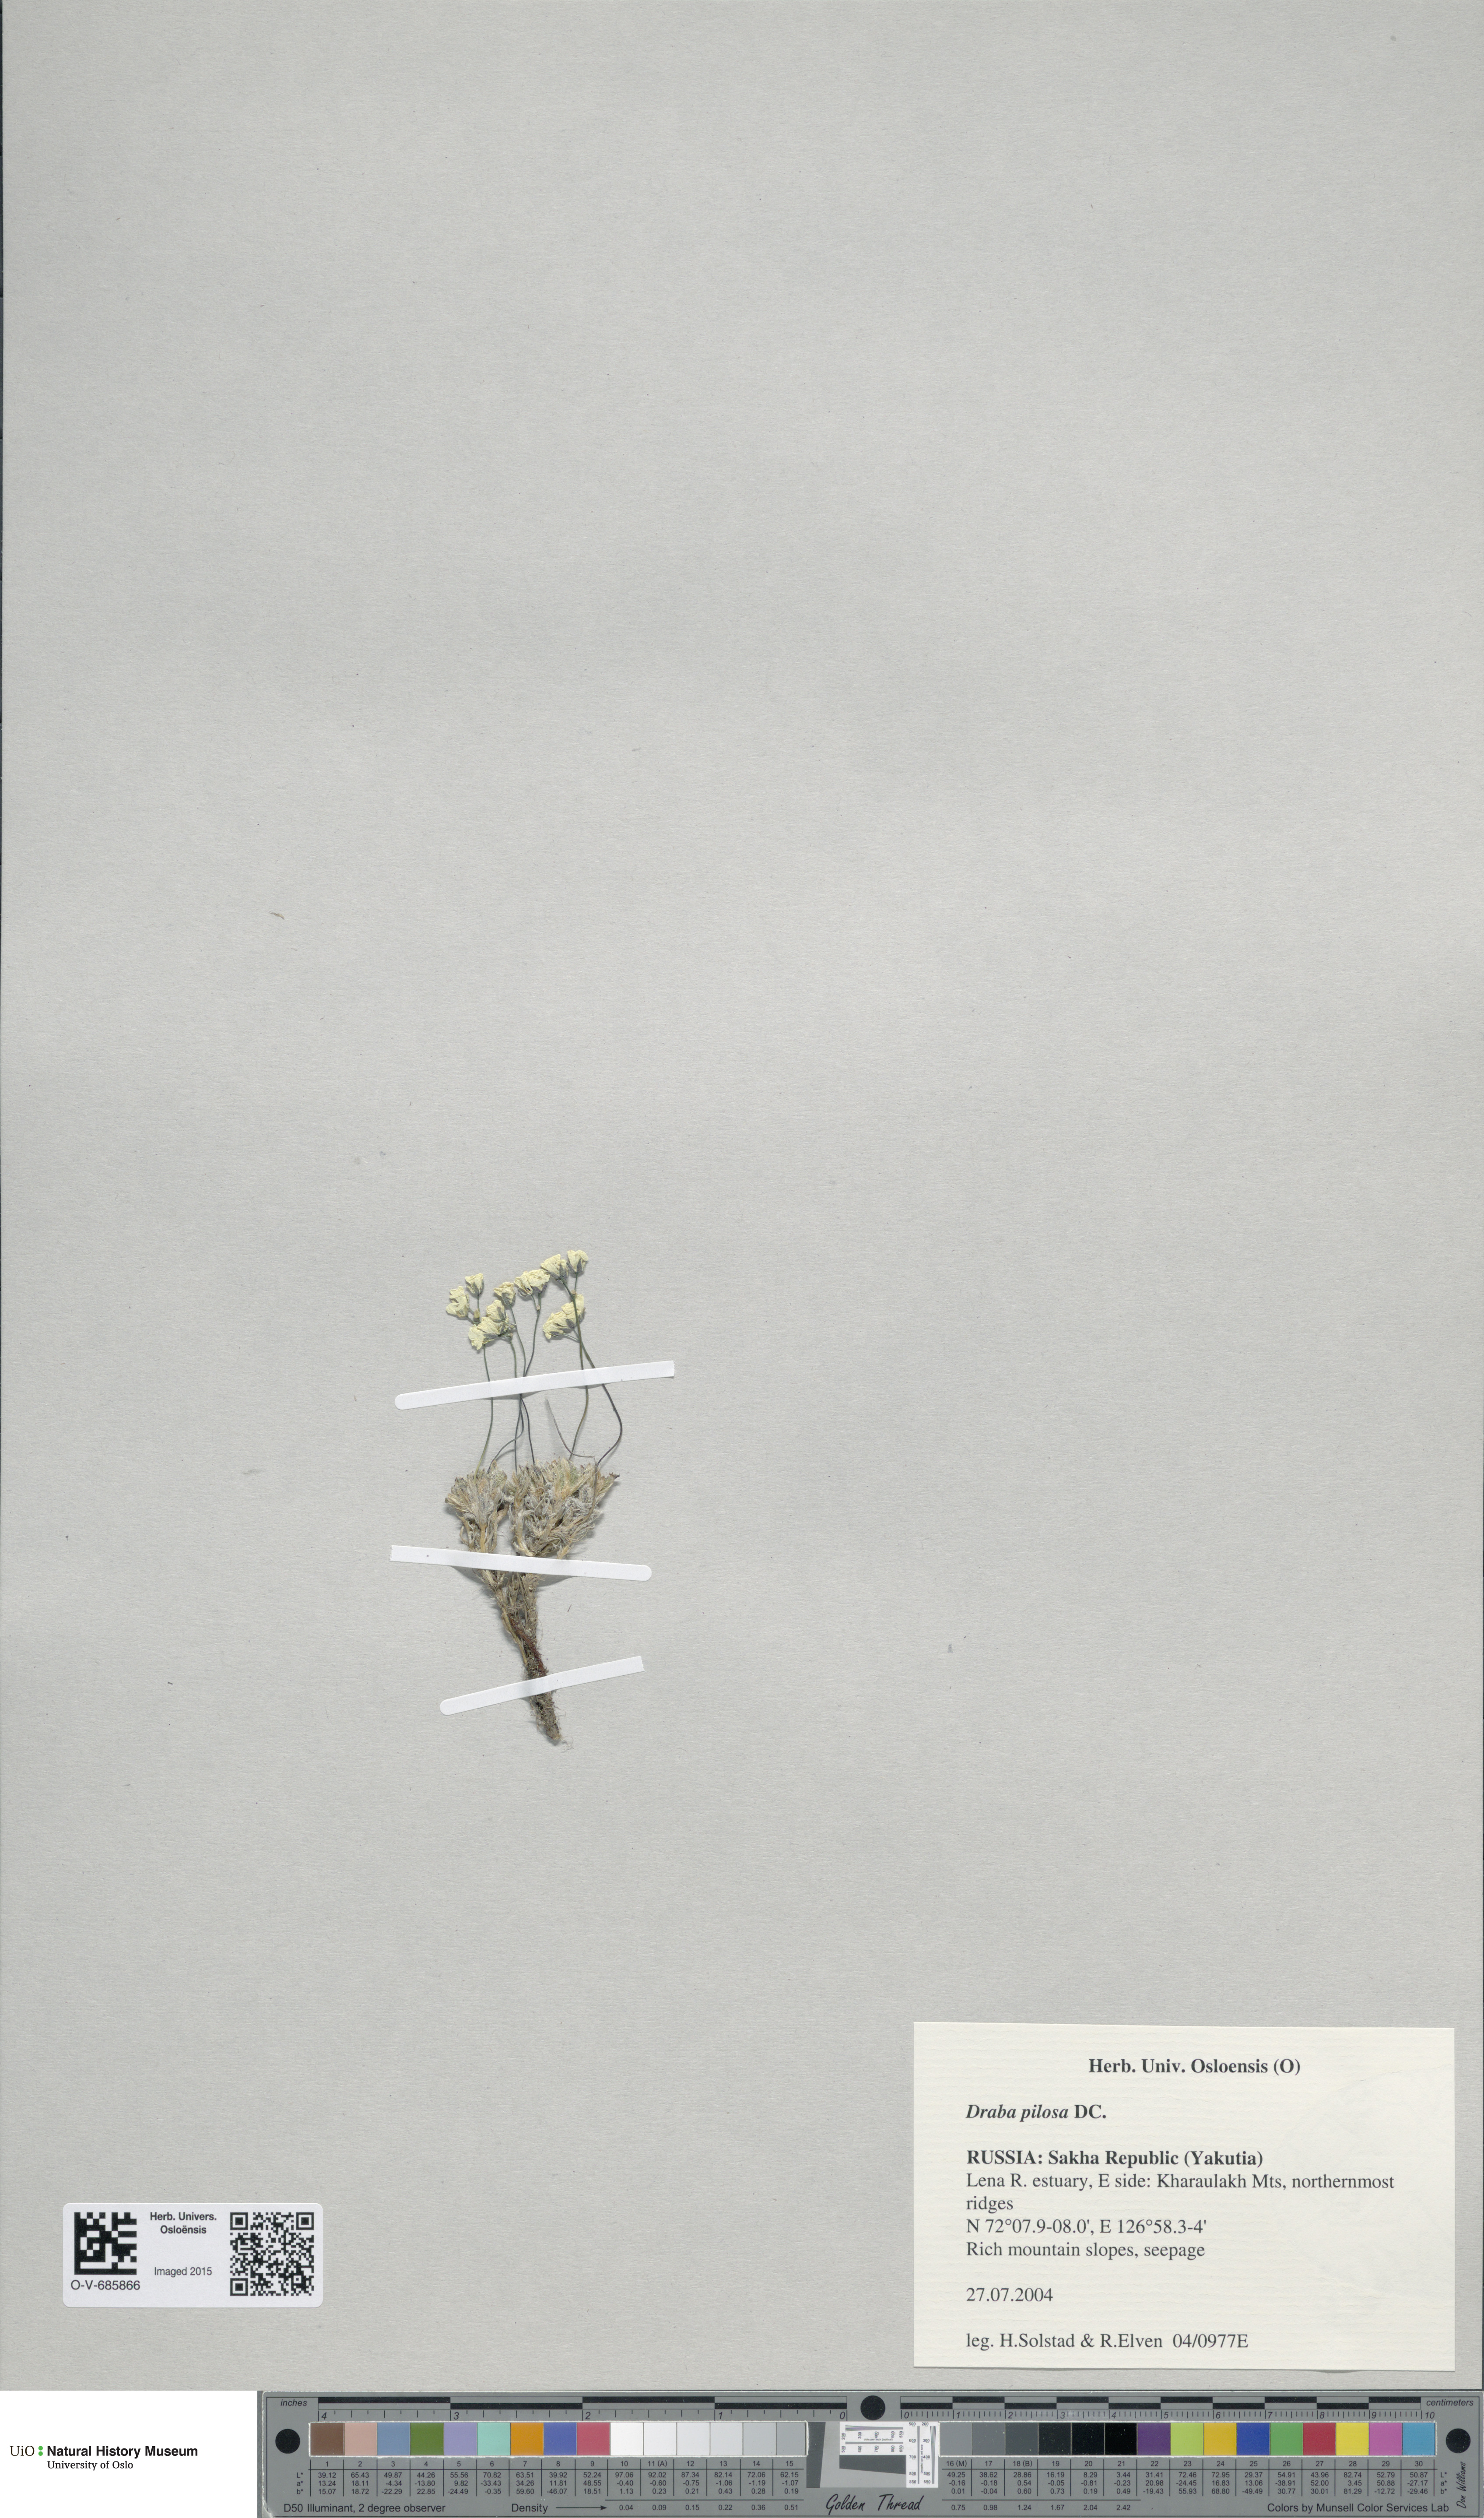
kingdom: Plantae
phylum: Tracheophyta
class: Magnoliopsida
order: Brassicales
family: Brassicaceae
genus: Draba
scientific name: Draba pilosa
